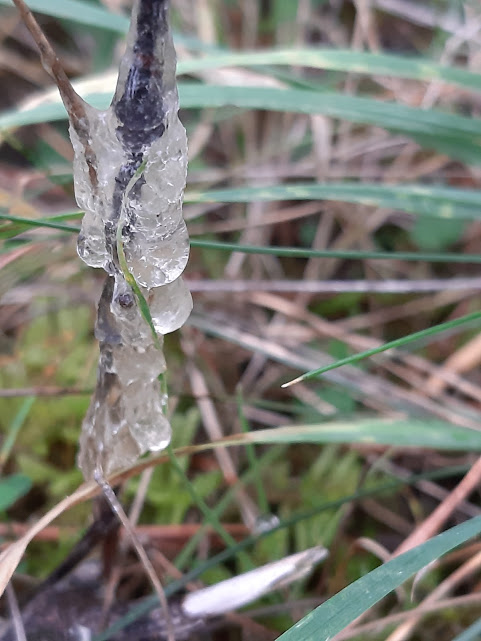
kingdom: Protozoa
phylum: Mycetozoa
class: Myxomycetes
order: Physarales
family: Physaraceae
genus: Didymium
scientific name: Didymium
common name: urteskum
